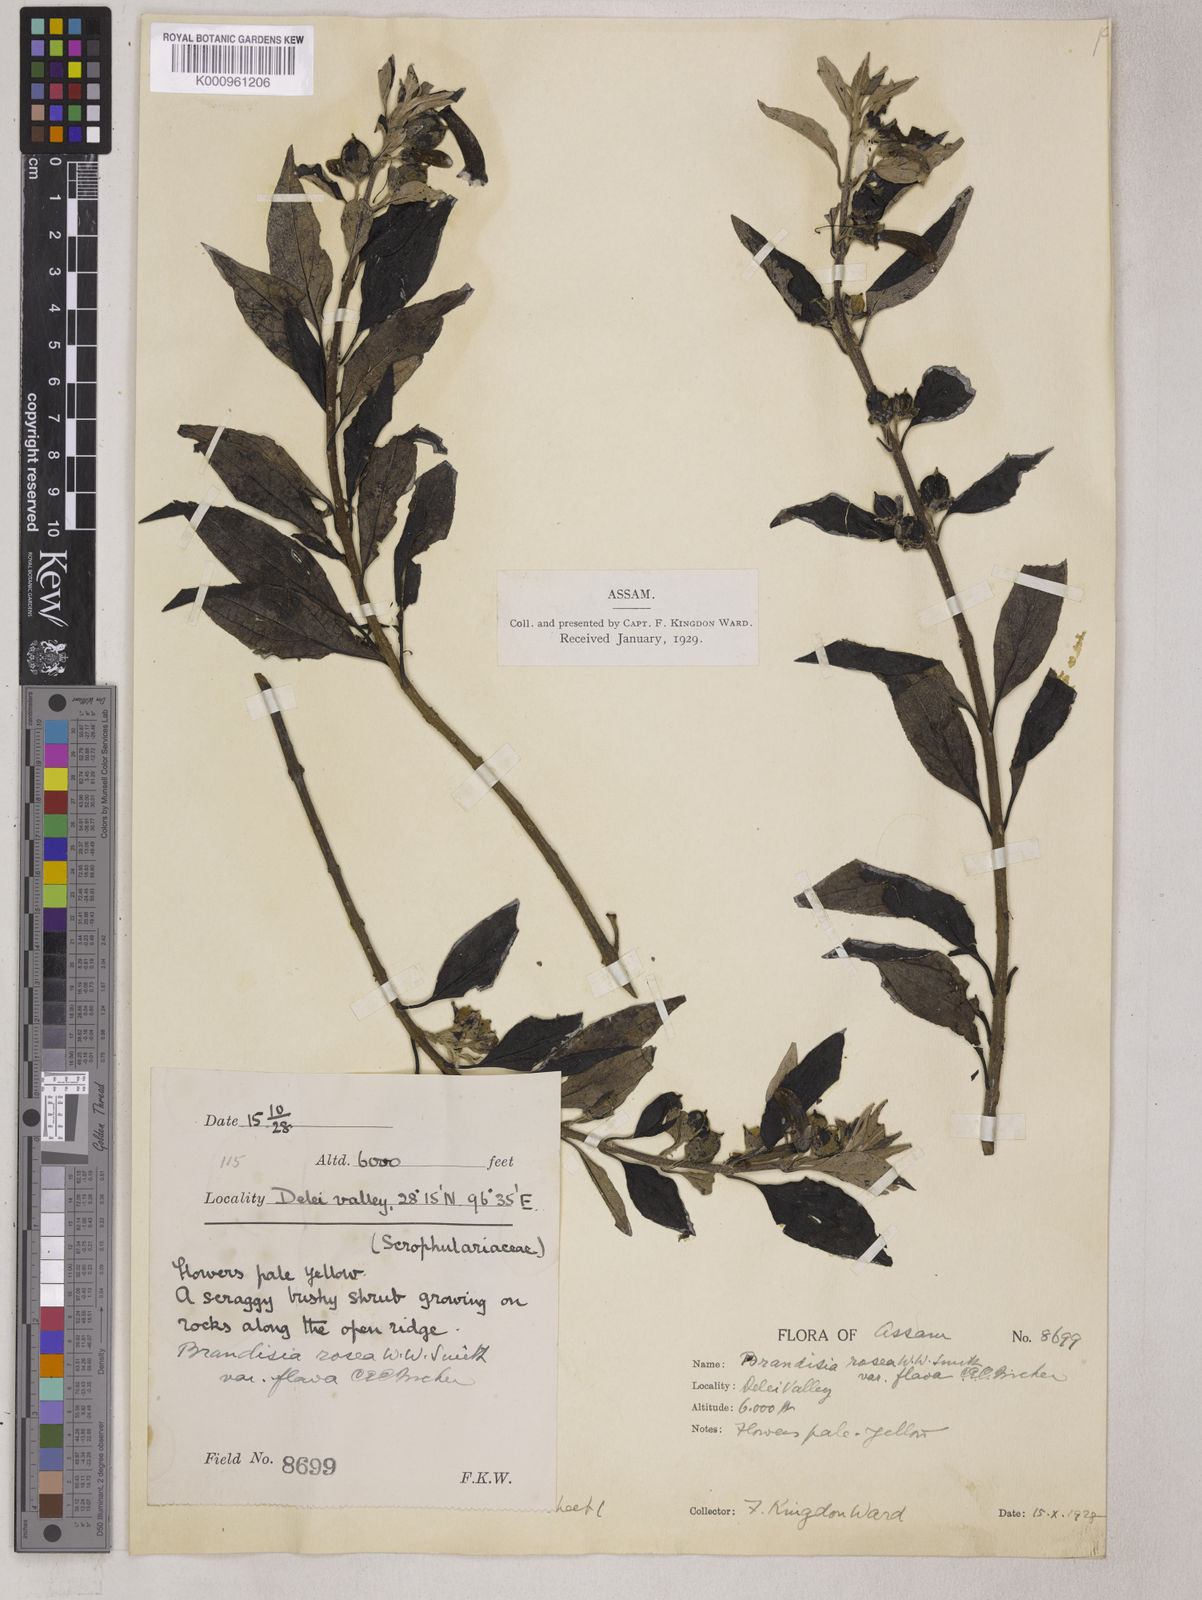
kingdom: Plantae
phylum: Tracheophyta
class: Magnoliopsida
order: Lamiales
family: Orobanchaceae
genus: Brandisia
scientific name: Brandisia rosea
